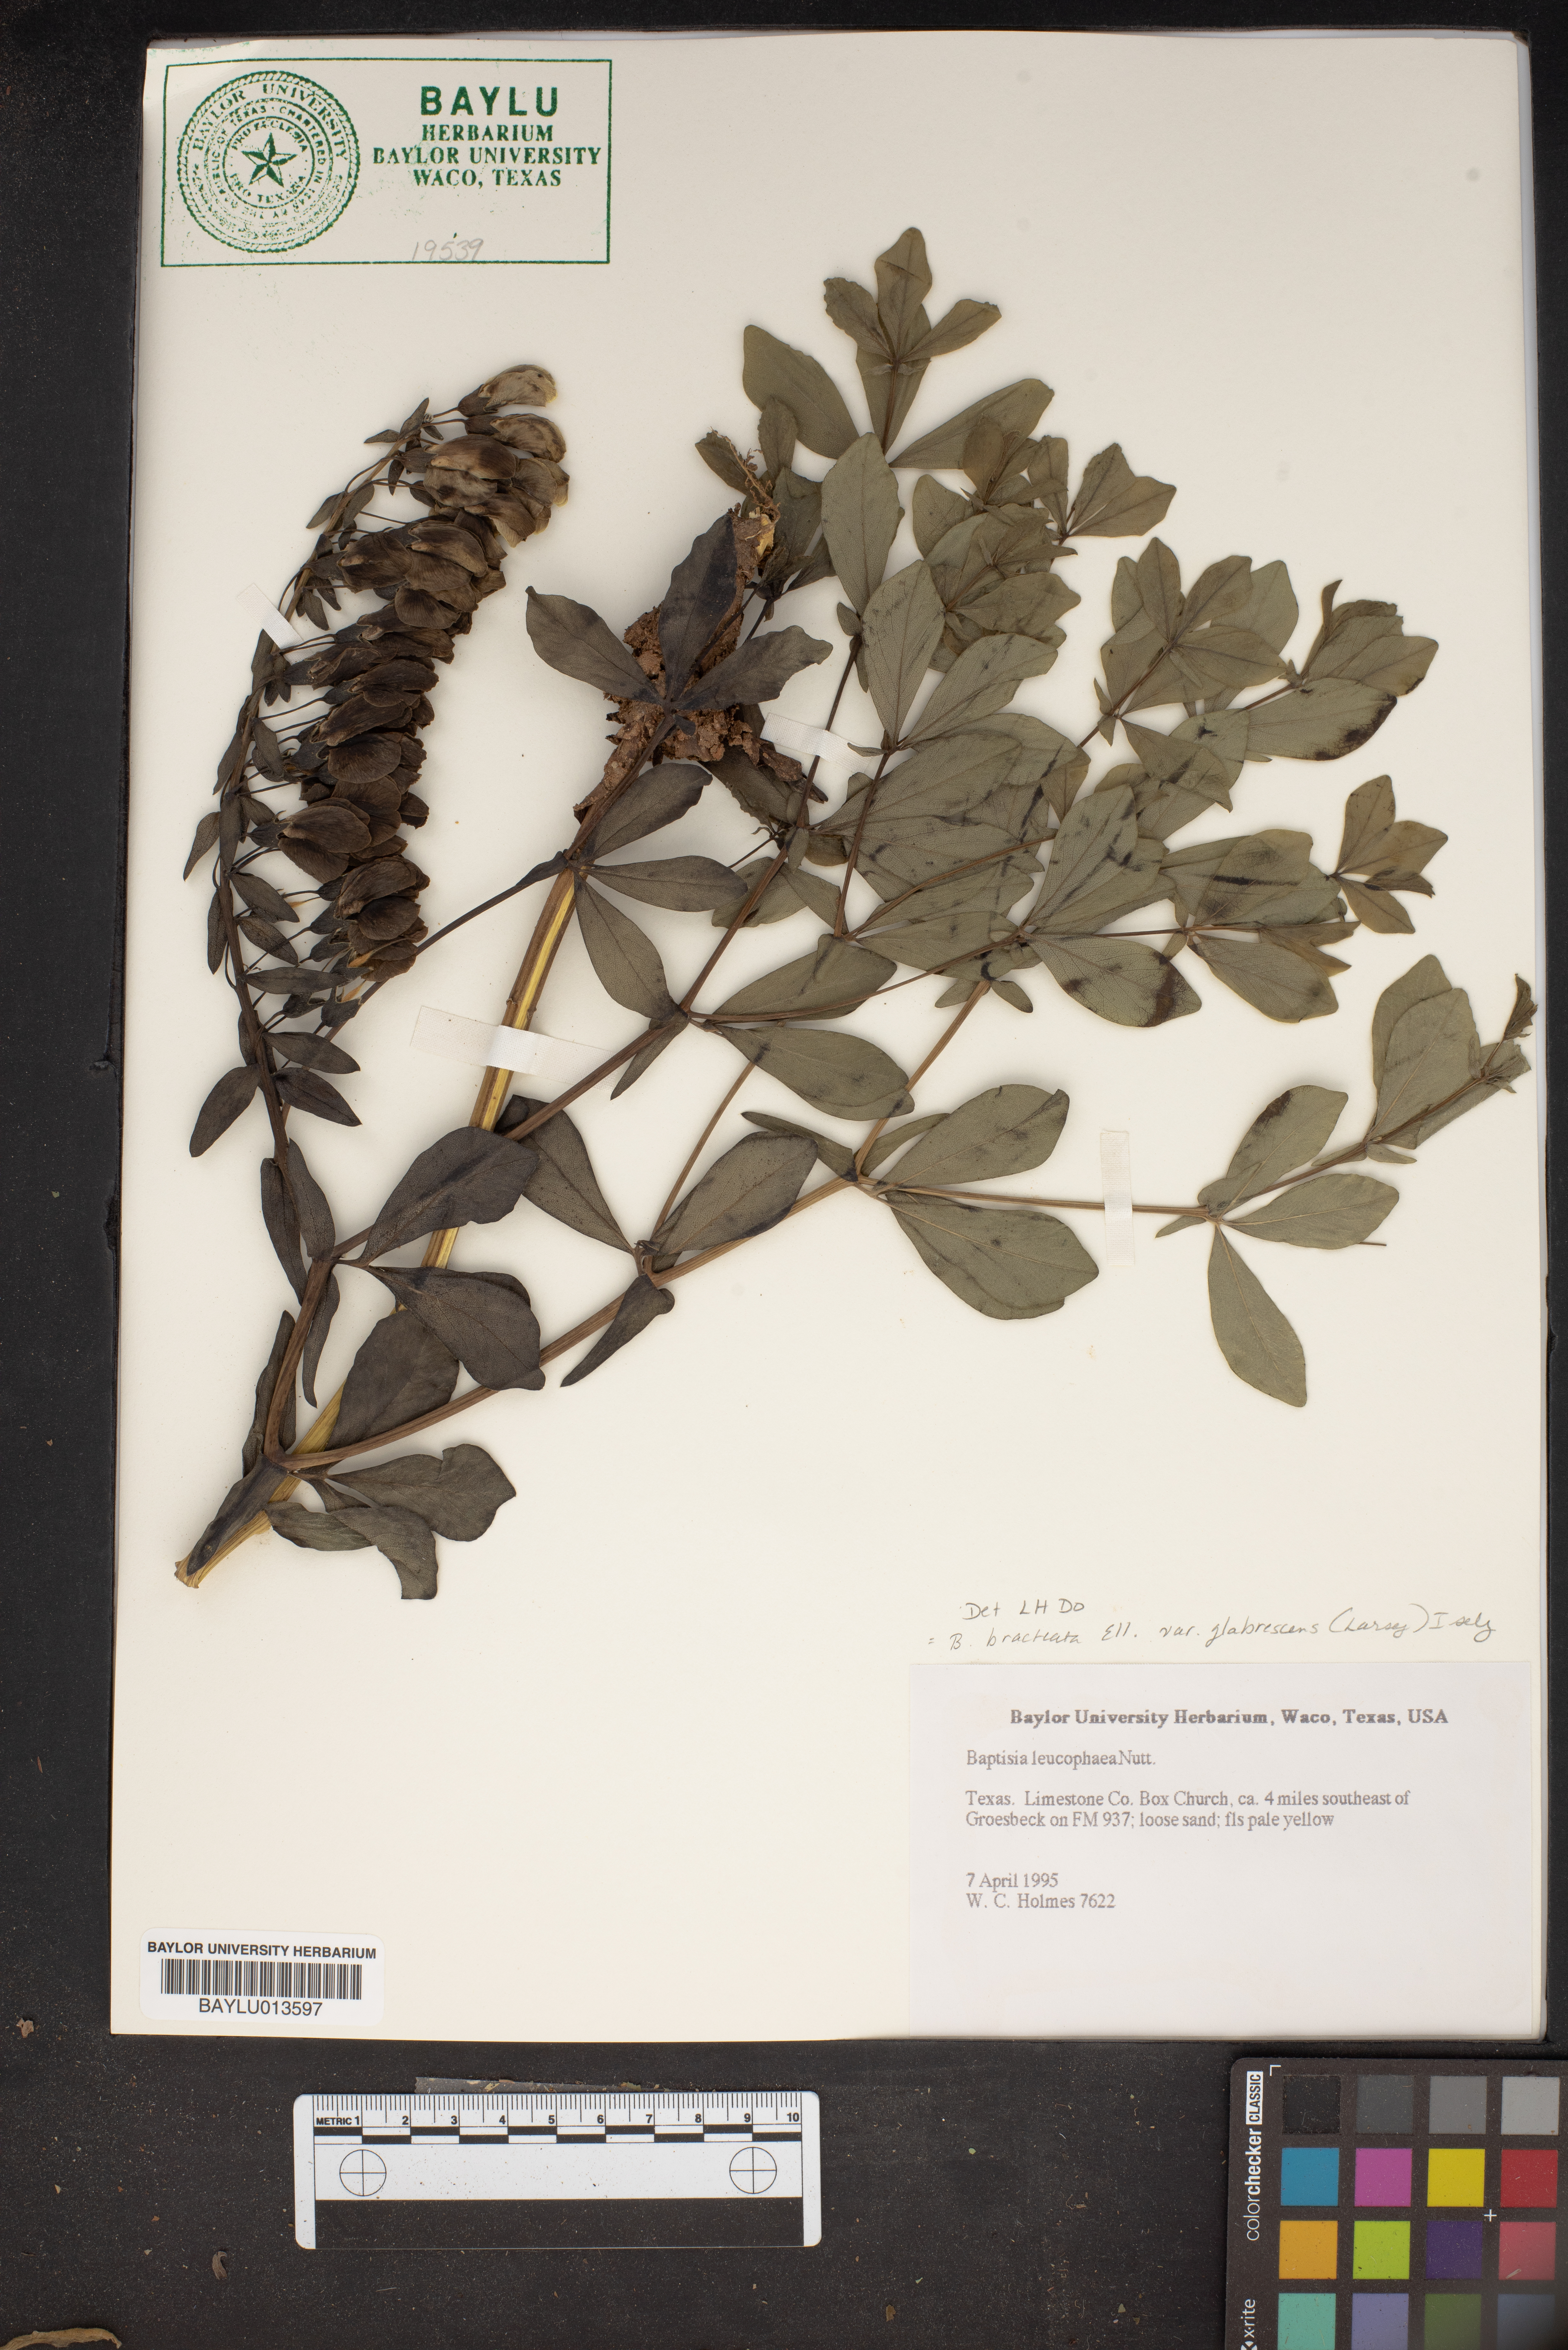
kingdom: Plantae
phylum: Tracheophyta
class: Magnoliopsida
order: Fabales
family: Fabaceae
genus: Baptisia
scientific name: Baptisia bracteata
